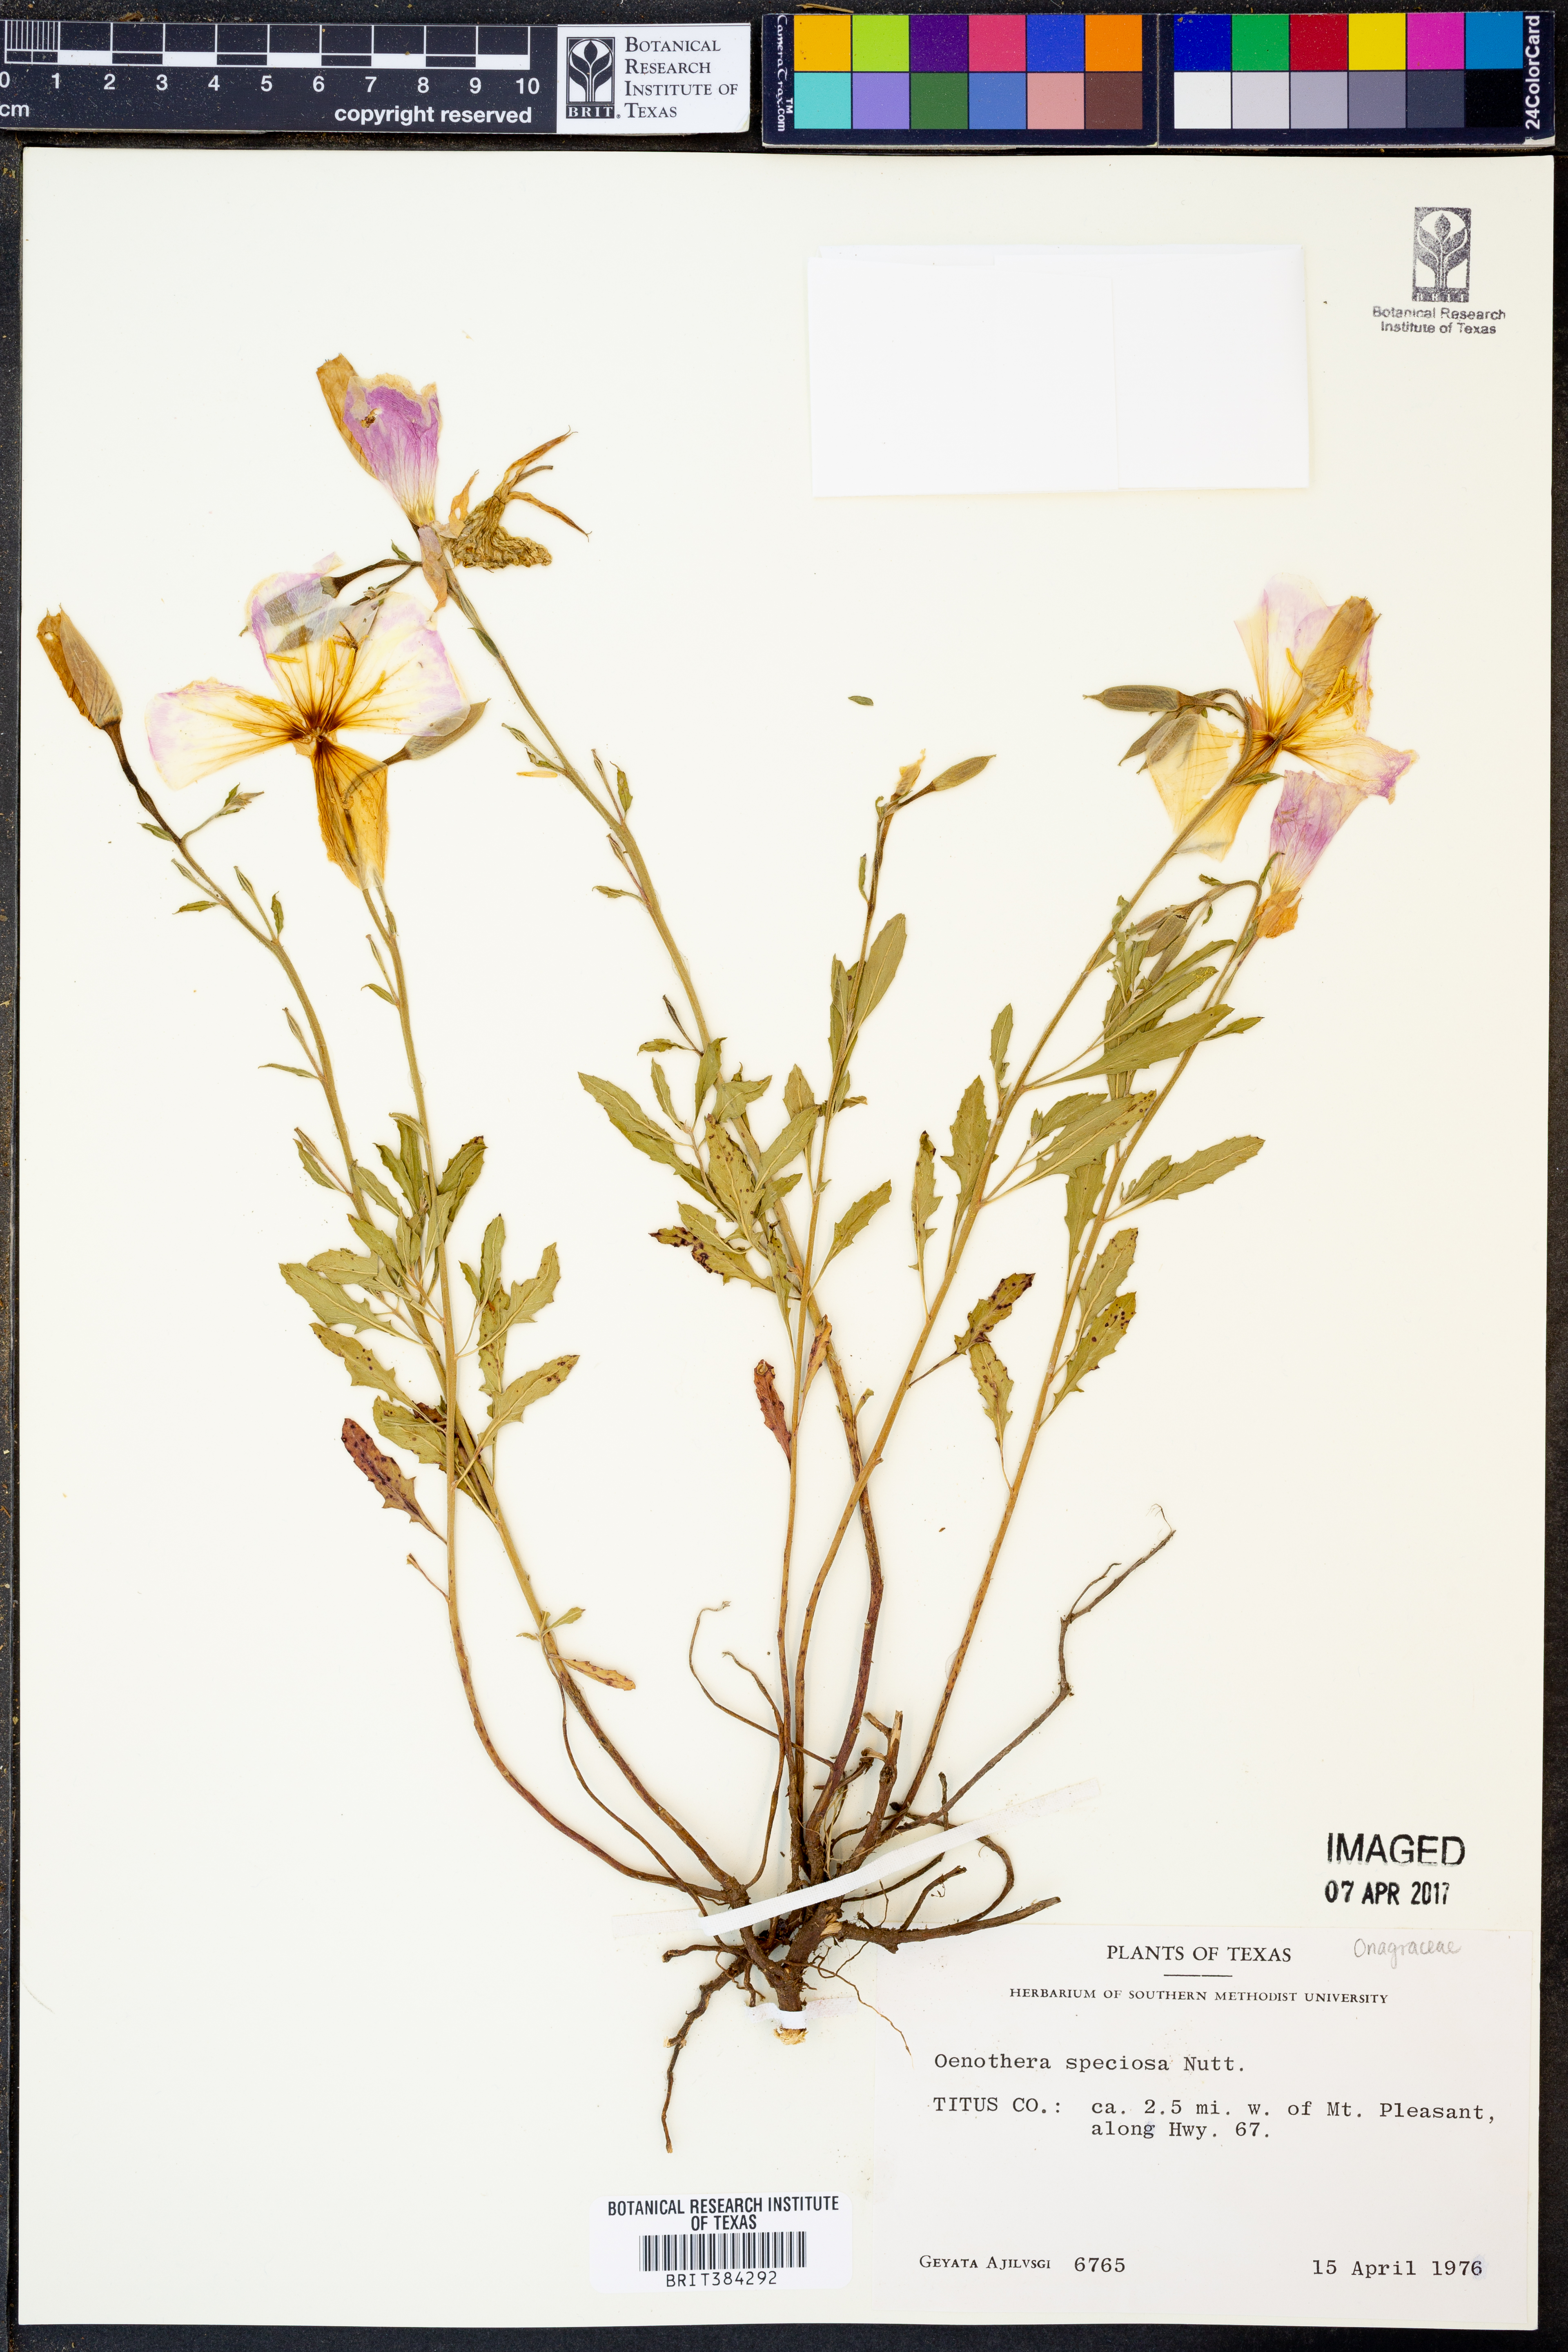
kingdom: Plantae
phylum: Tracheophyta
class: Magnoliopsida
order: Myrtales
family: Onagraceae
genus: Oenothera
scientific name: Oenothera speciosa
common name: White evening-primrose
